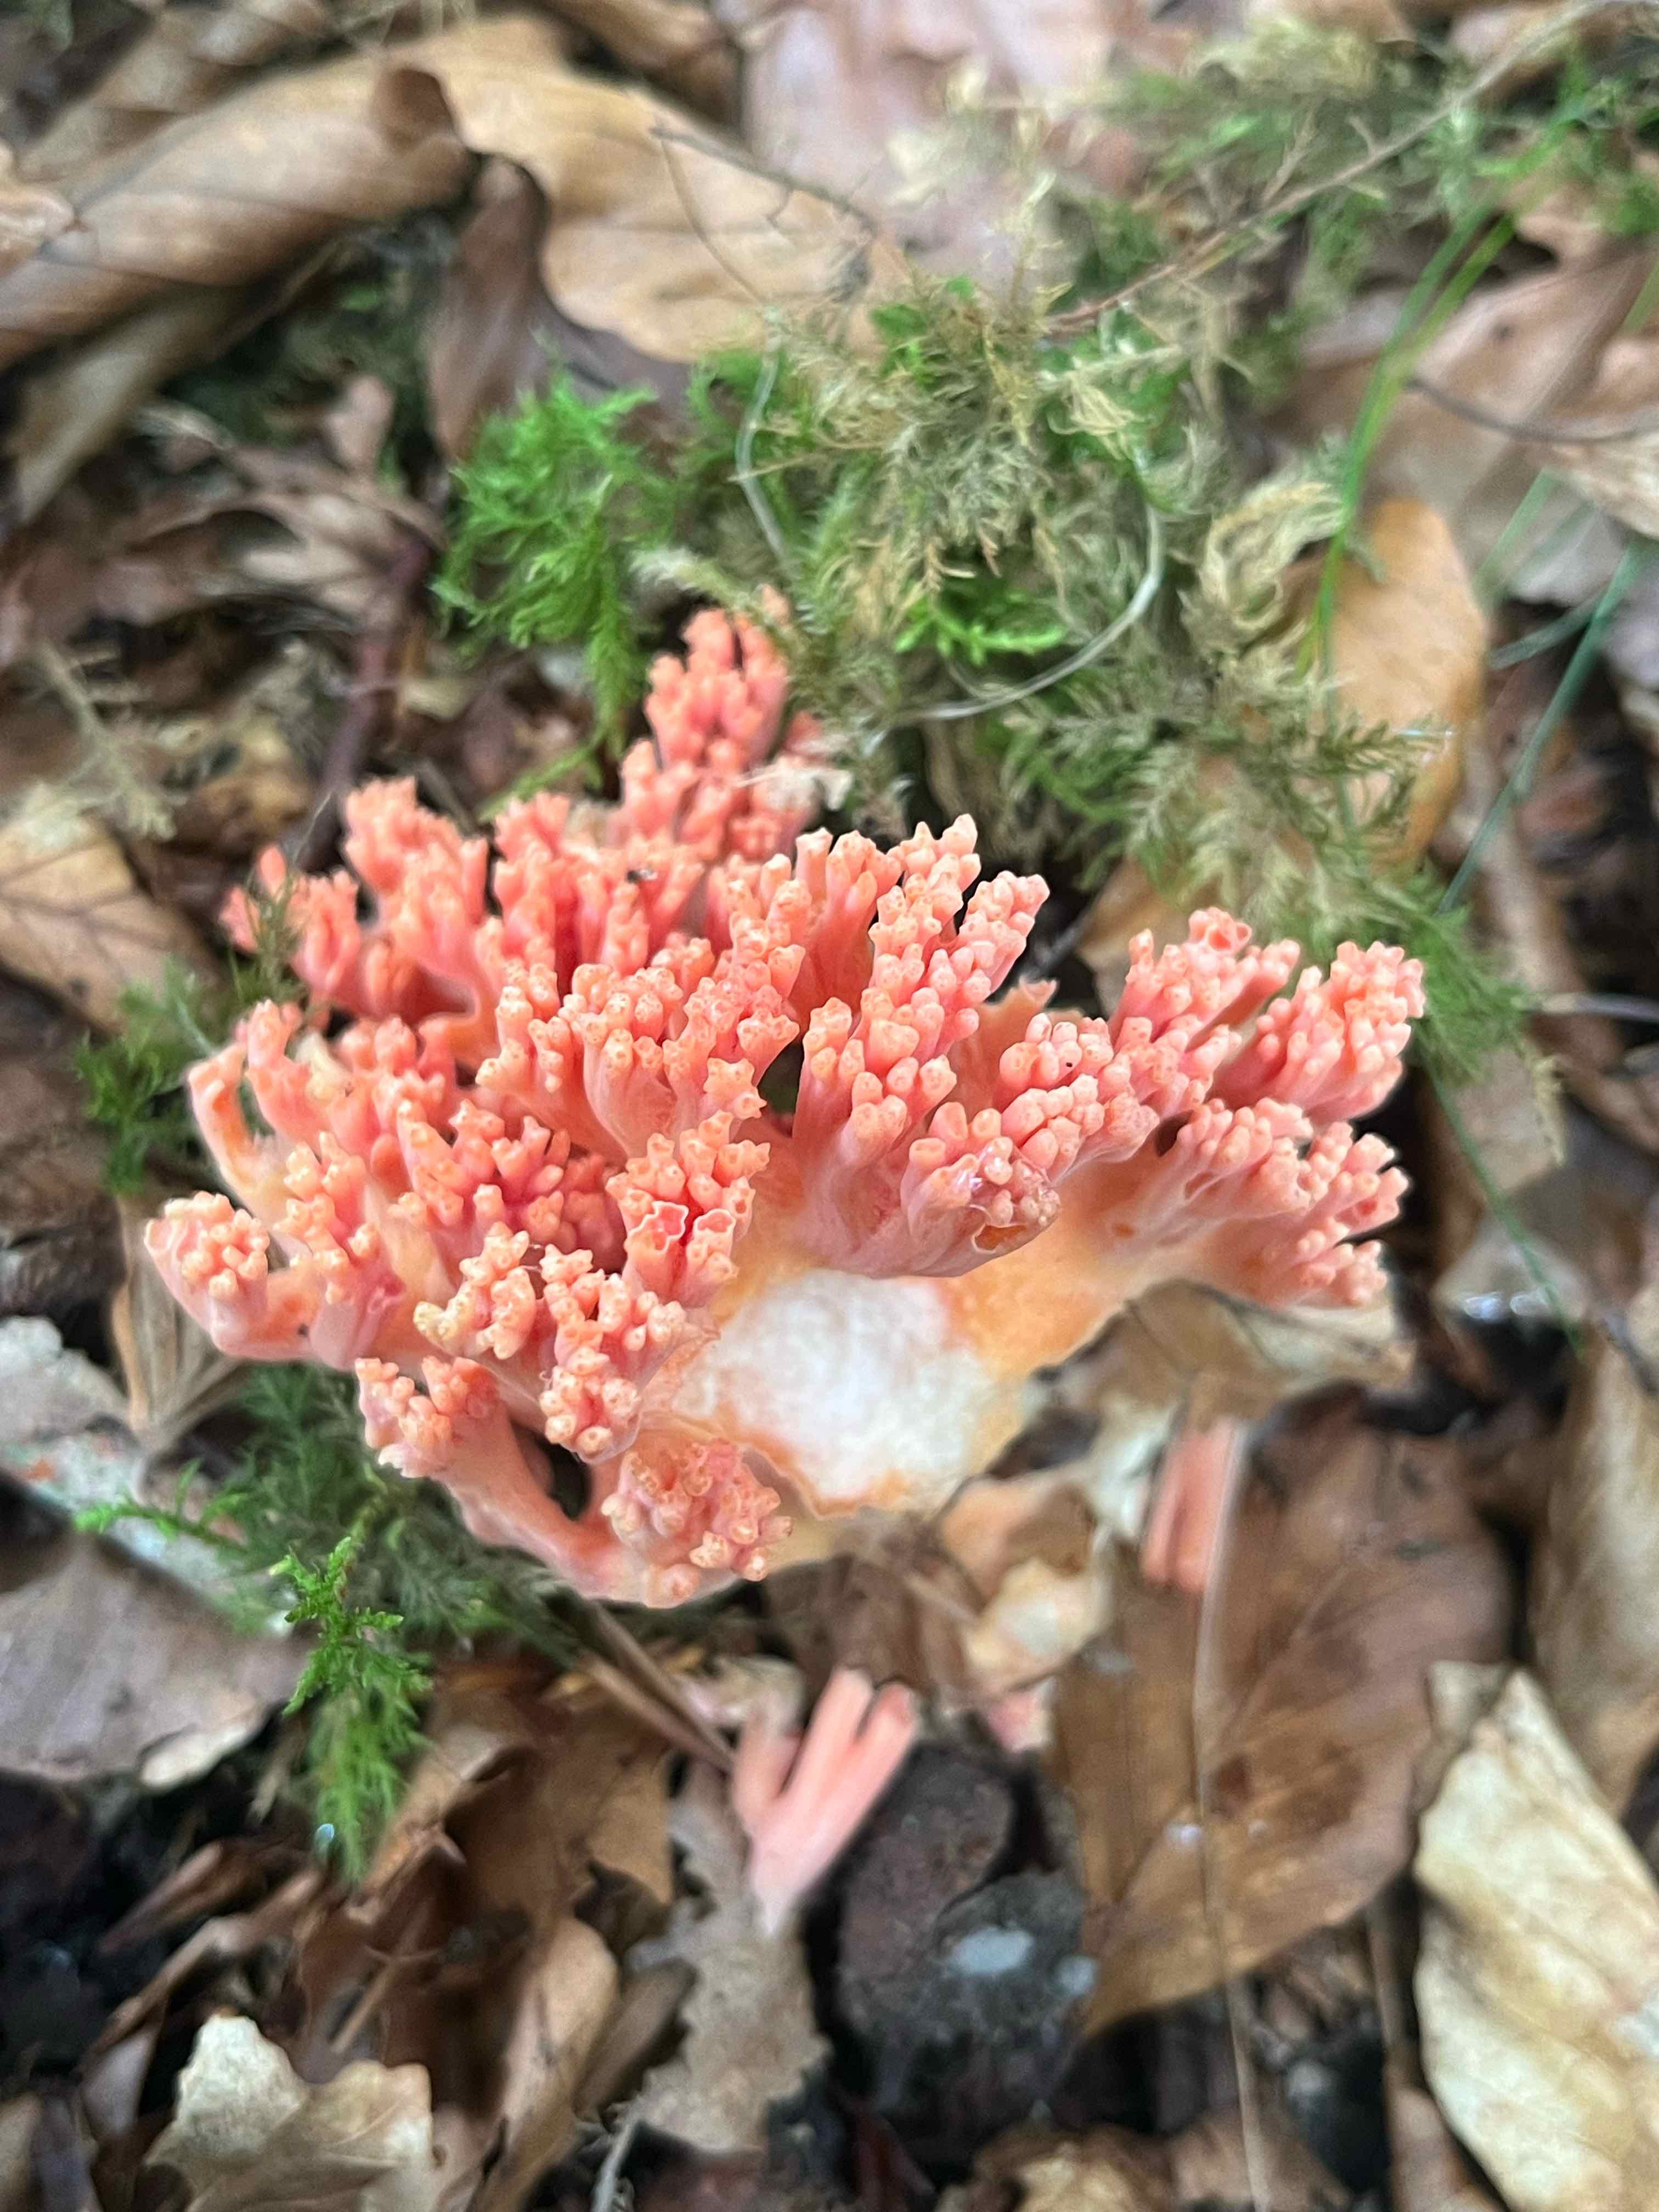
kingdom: Fungi
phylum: Basidiomycota
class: Agaricomycetes
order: Gomphales
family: Gomphaceae
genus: Ramaria
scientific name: Ramaria
